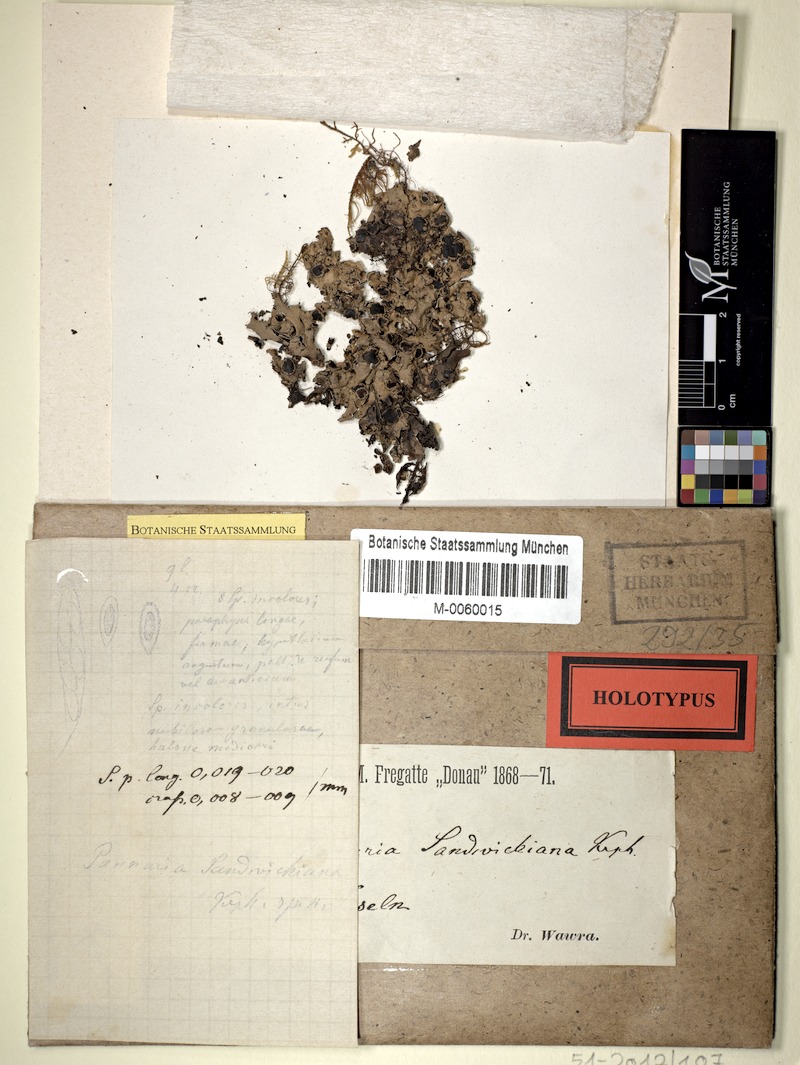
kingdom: Fungi
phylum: Ascomycota
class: Lecanoromycetes
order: Peltigerales
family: Pannariaceae
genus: Pannaria
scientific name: Pannaria lurida
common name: Wrinkled shingle lichen
